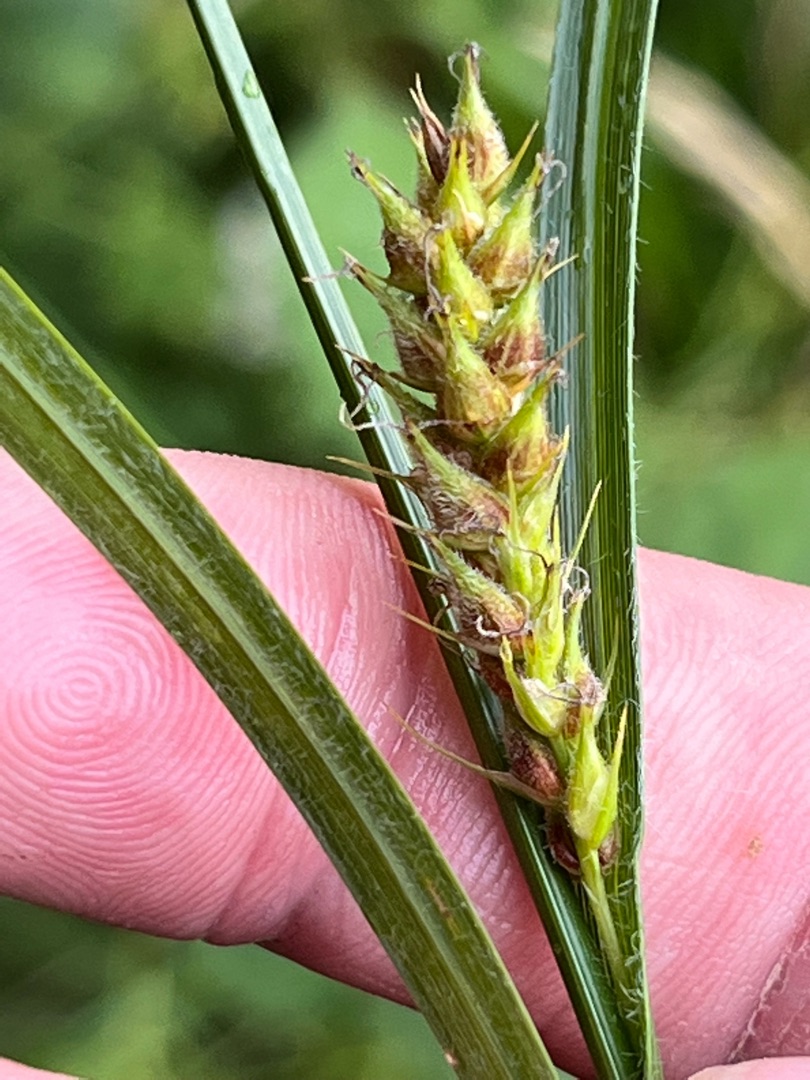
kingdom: Plantae
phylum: Tracheophyta
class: Liliopsida
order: Poales
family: Cyperaceae
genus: Carex
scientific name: Carex hirta
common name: Håret star
